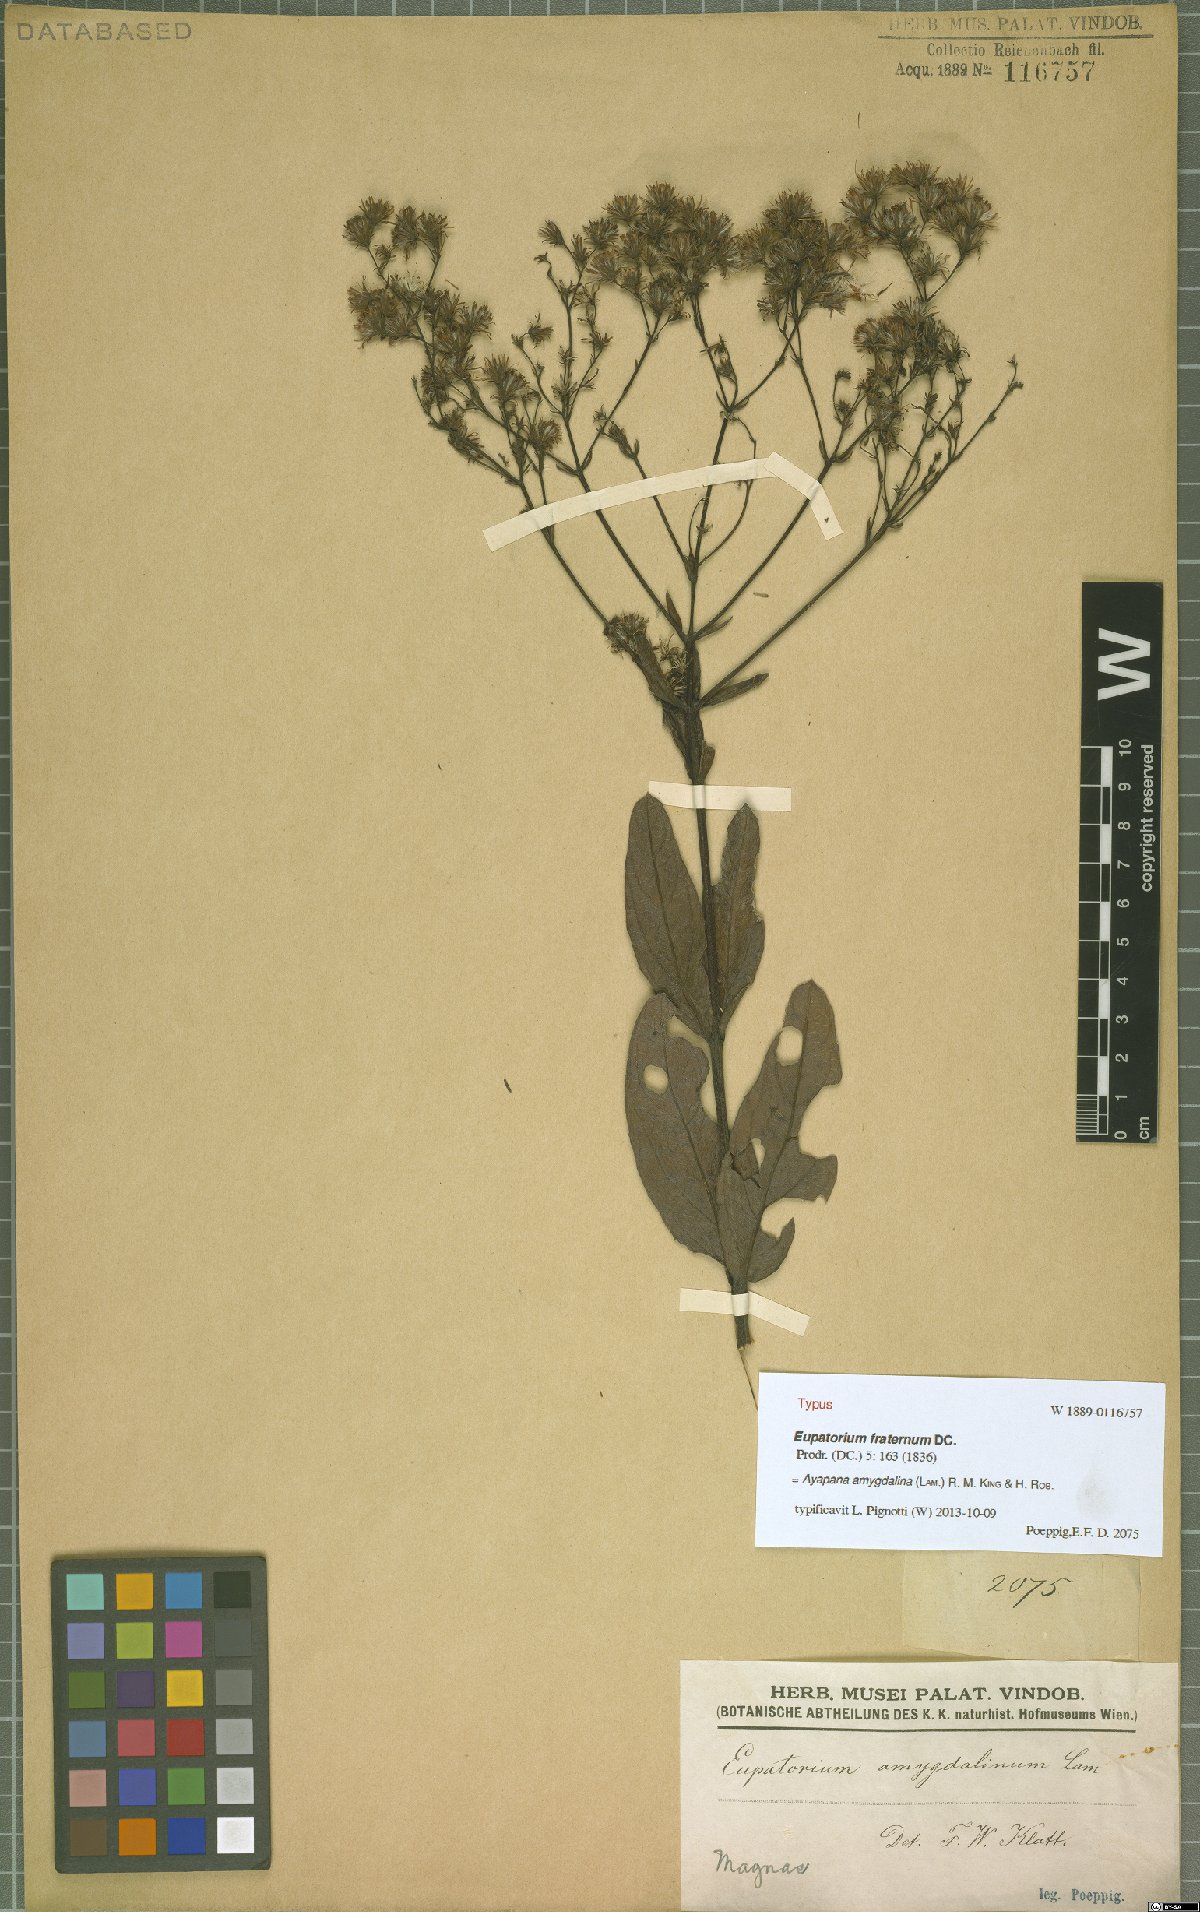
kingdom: Plantae
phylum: Tracheophyta
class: Magnoliopsida
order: Asterales
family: Asteraceae
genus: Ayapana
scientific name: Ayapana amygdalina
